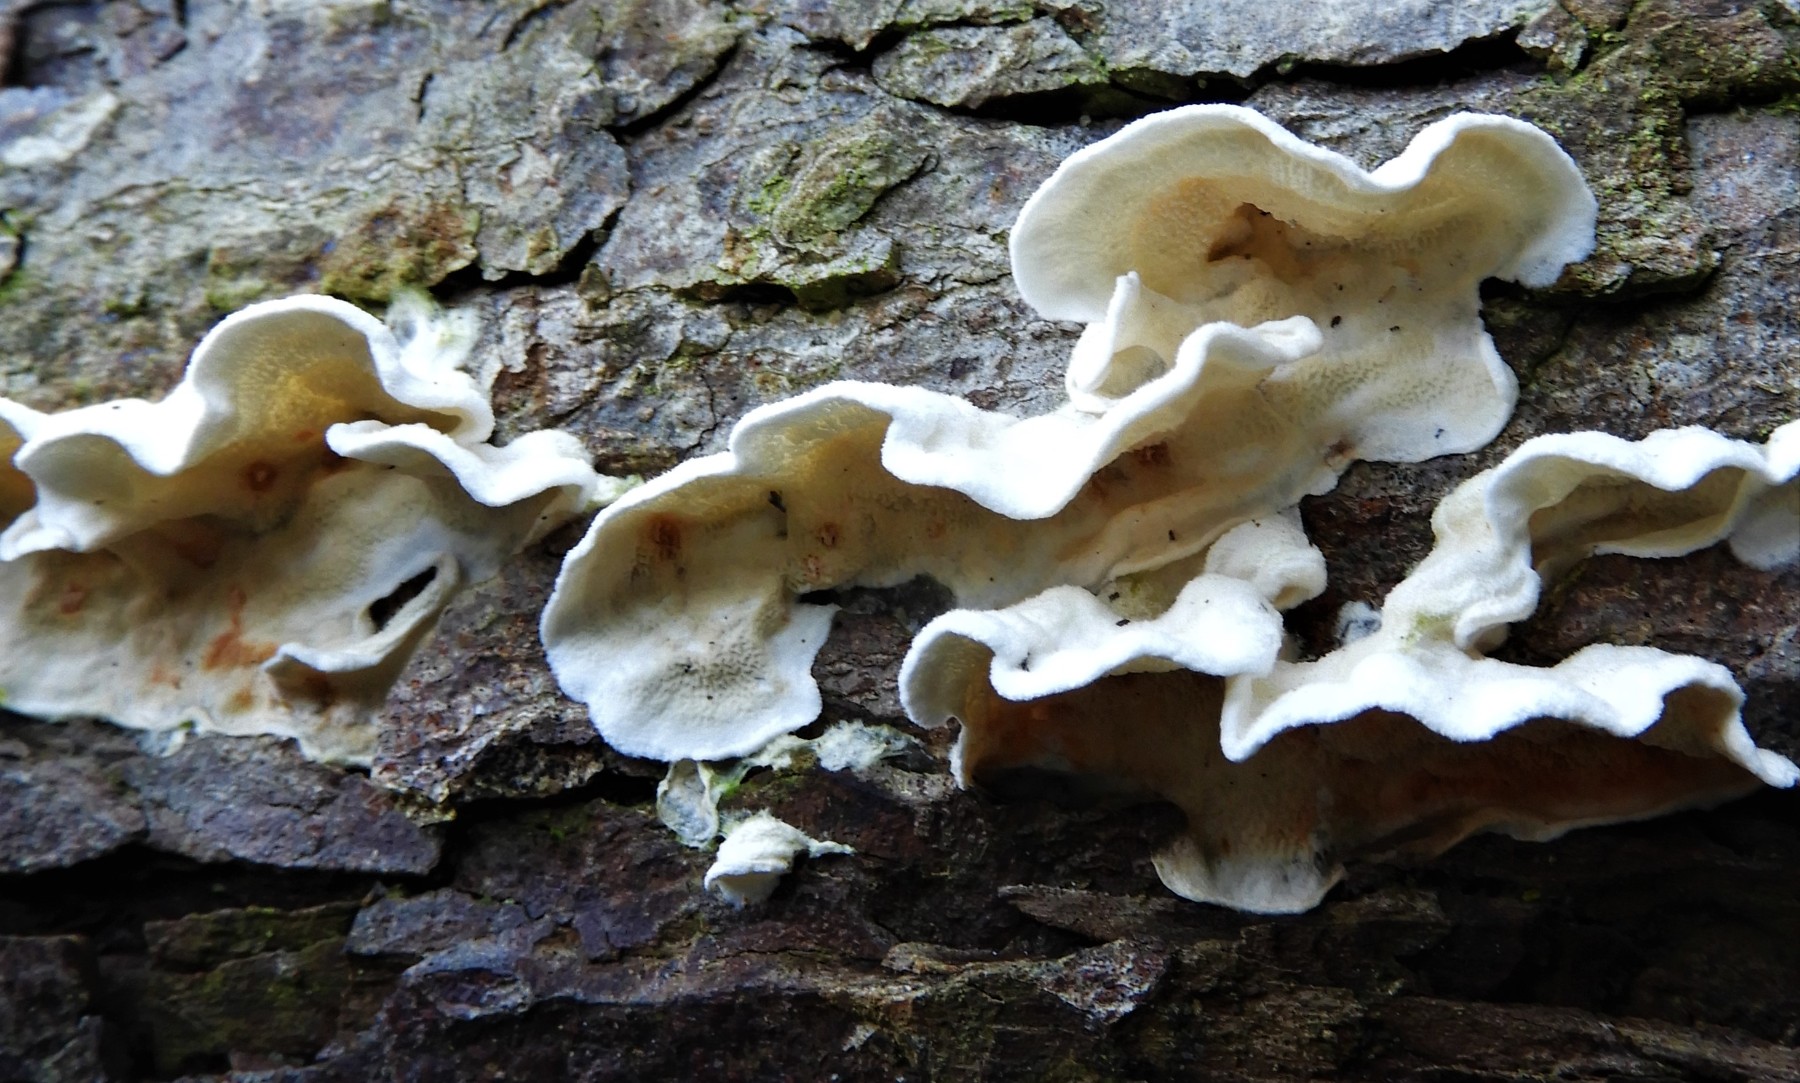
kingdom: Fungi
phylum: Basidiomycota
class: Agaricomycetes
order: Polyporales
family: Irpicaceae
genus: Byssomerulius
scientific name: Byssomerulius corium
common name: læder-åresvamp
